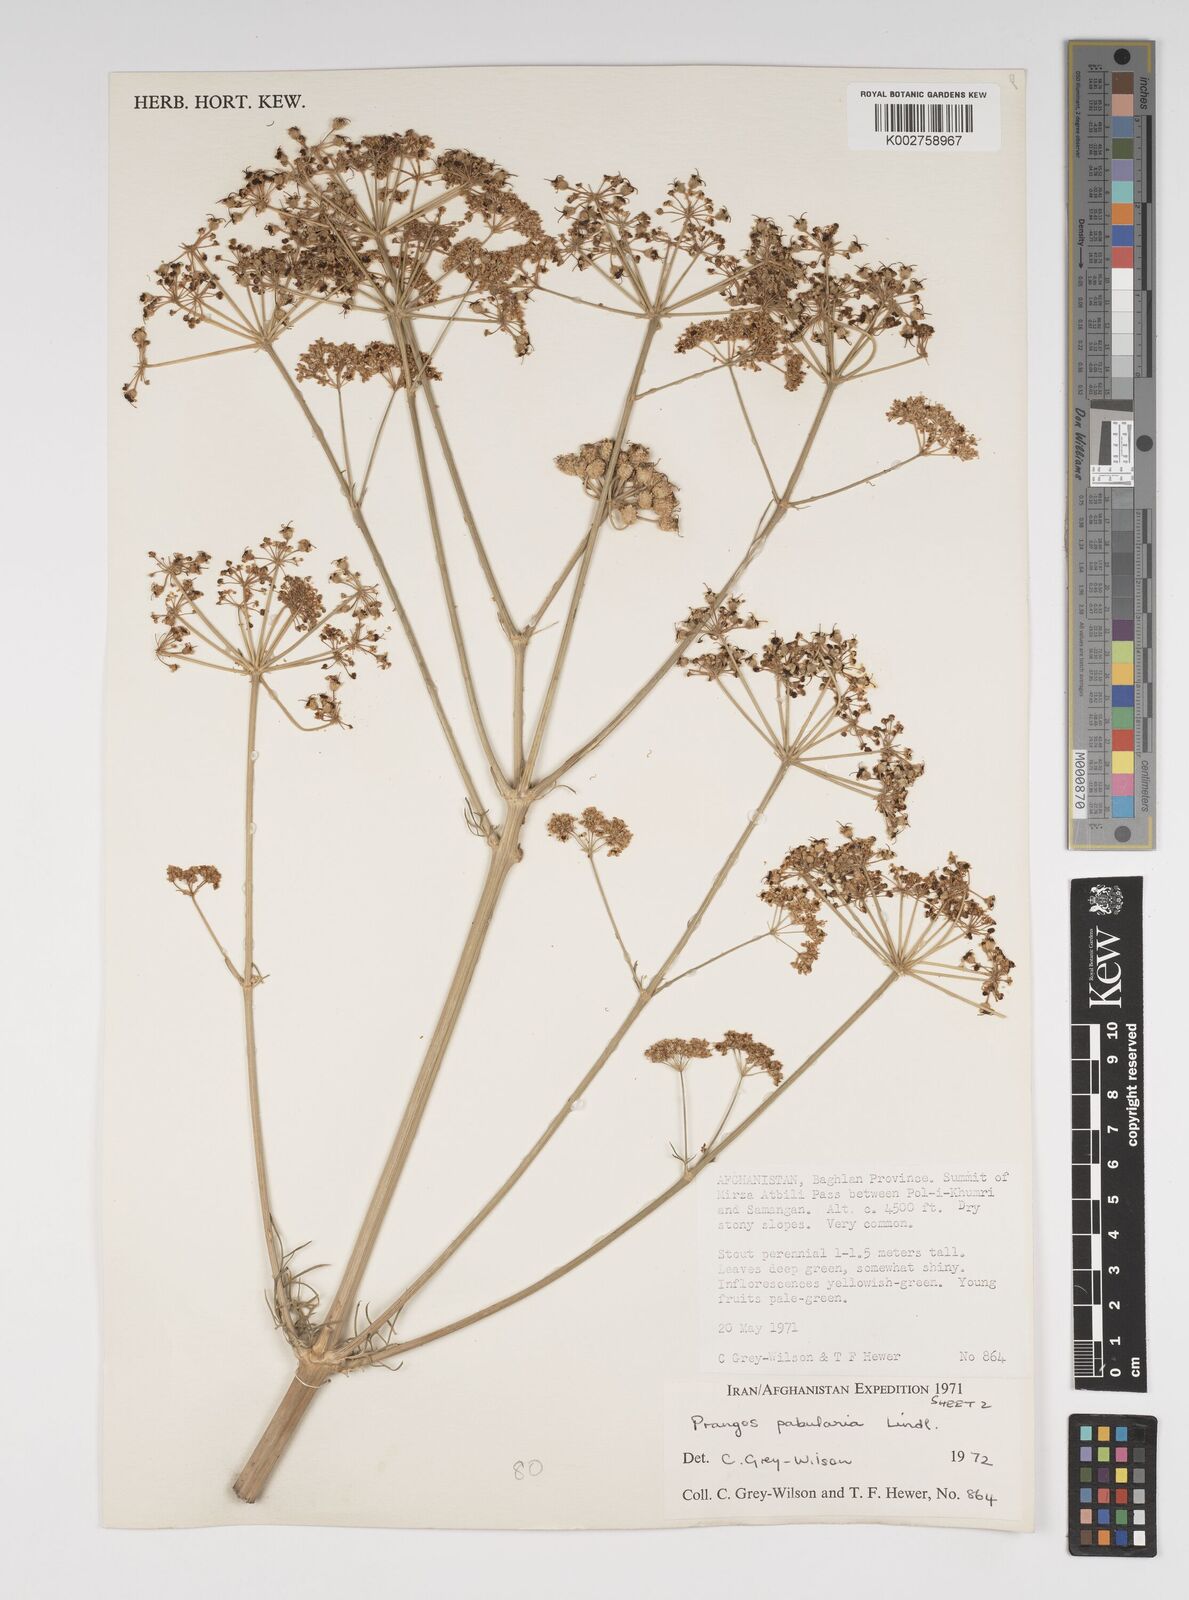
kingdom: Plantae
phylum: Tracheophyta
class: Magnoliopsida
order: Apiales
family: Apiaceae
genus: Prangos
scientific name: Prangos pabularia
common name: Yugan
